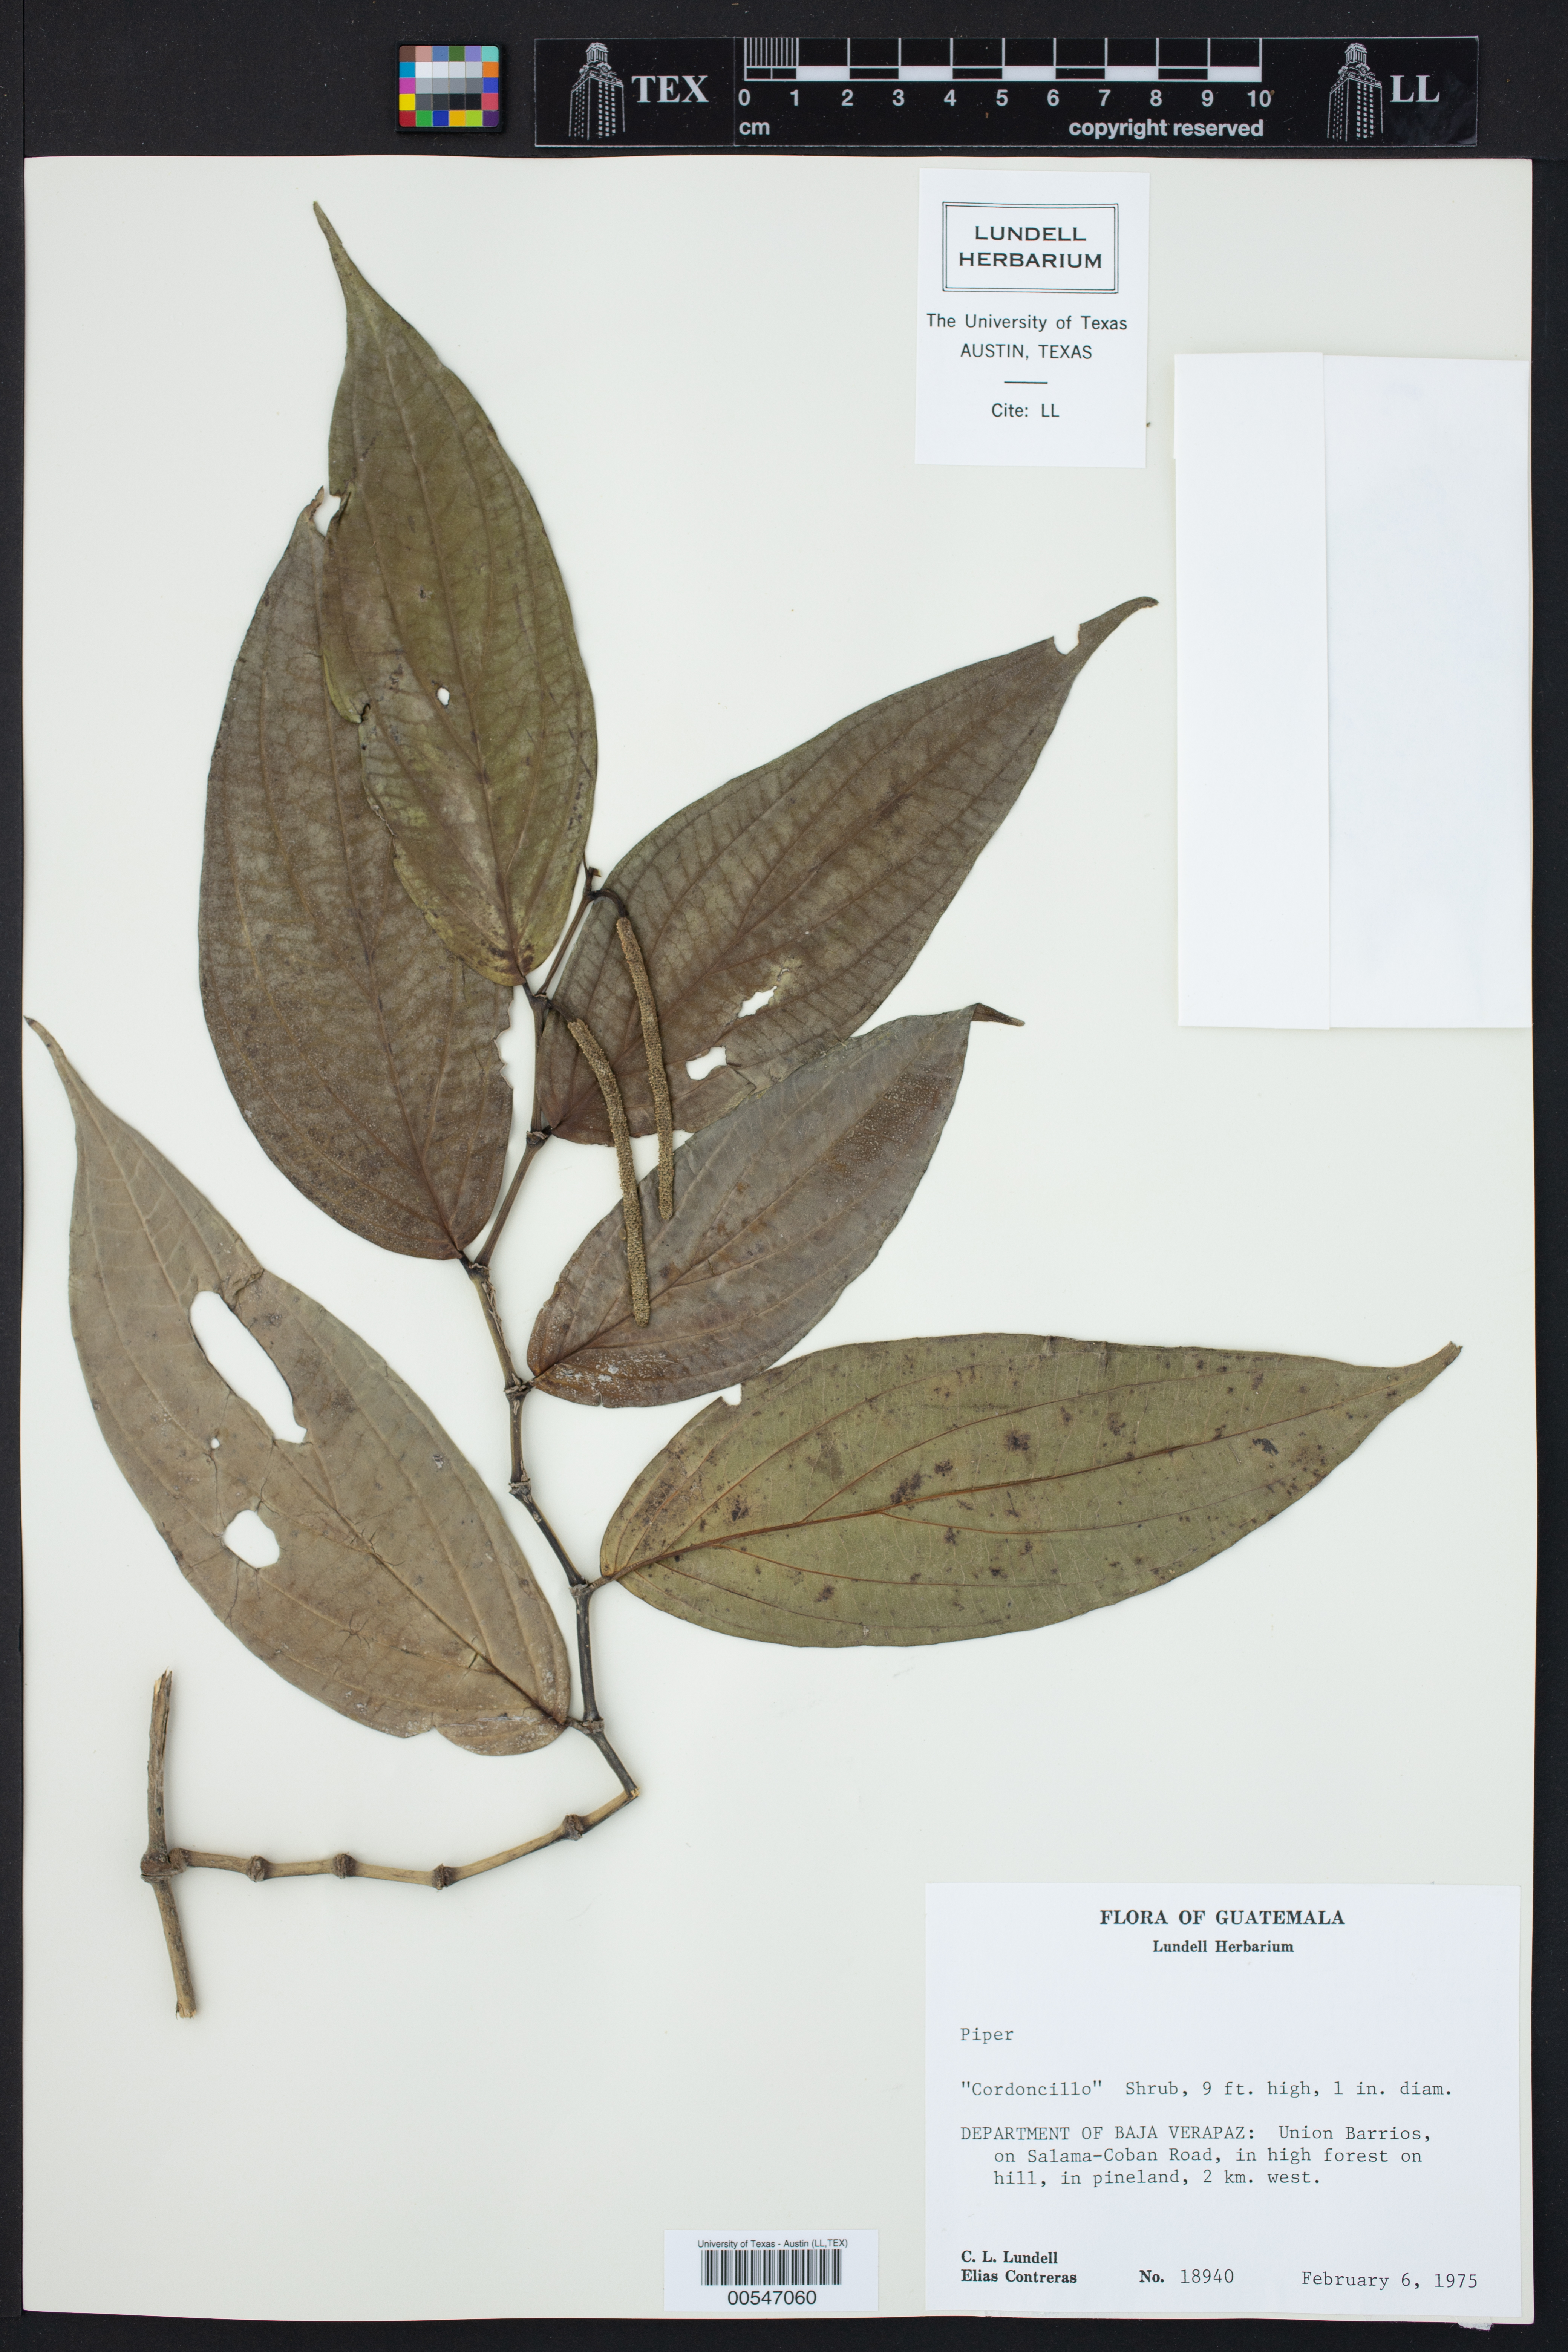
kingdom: Plantae
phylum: Tracheophyta
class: Magnoliopsida
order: Piperales
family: Piperaceae
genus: Piper
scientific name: Piper
